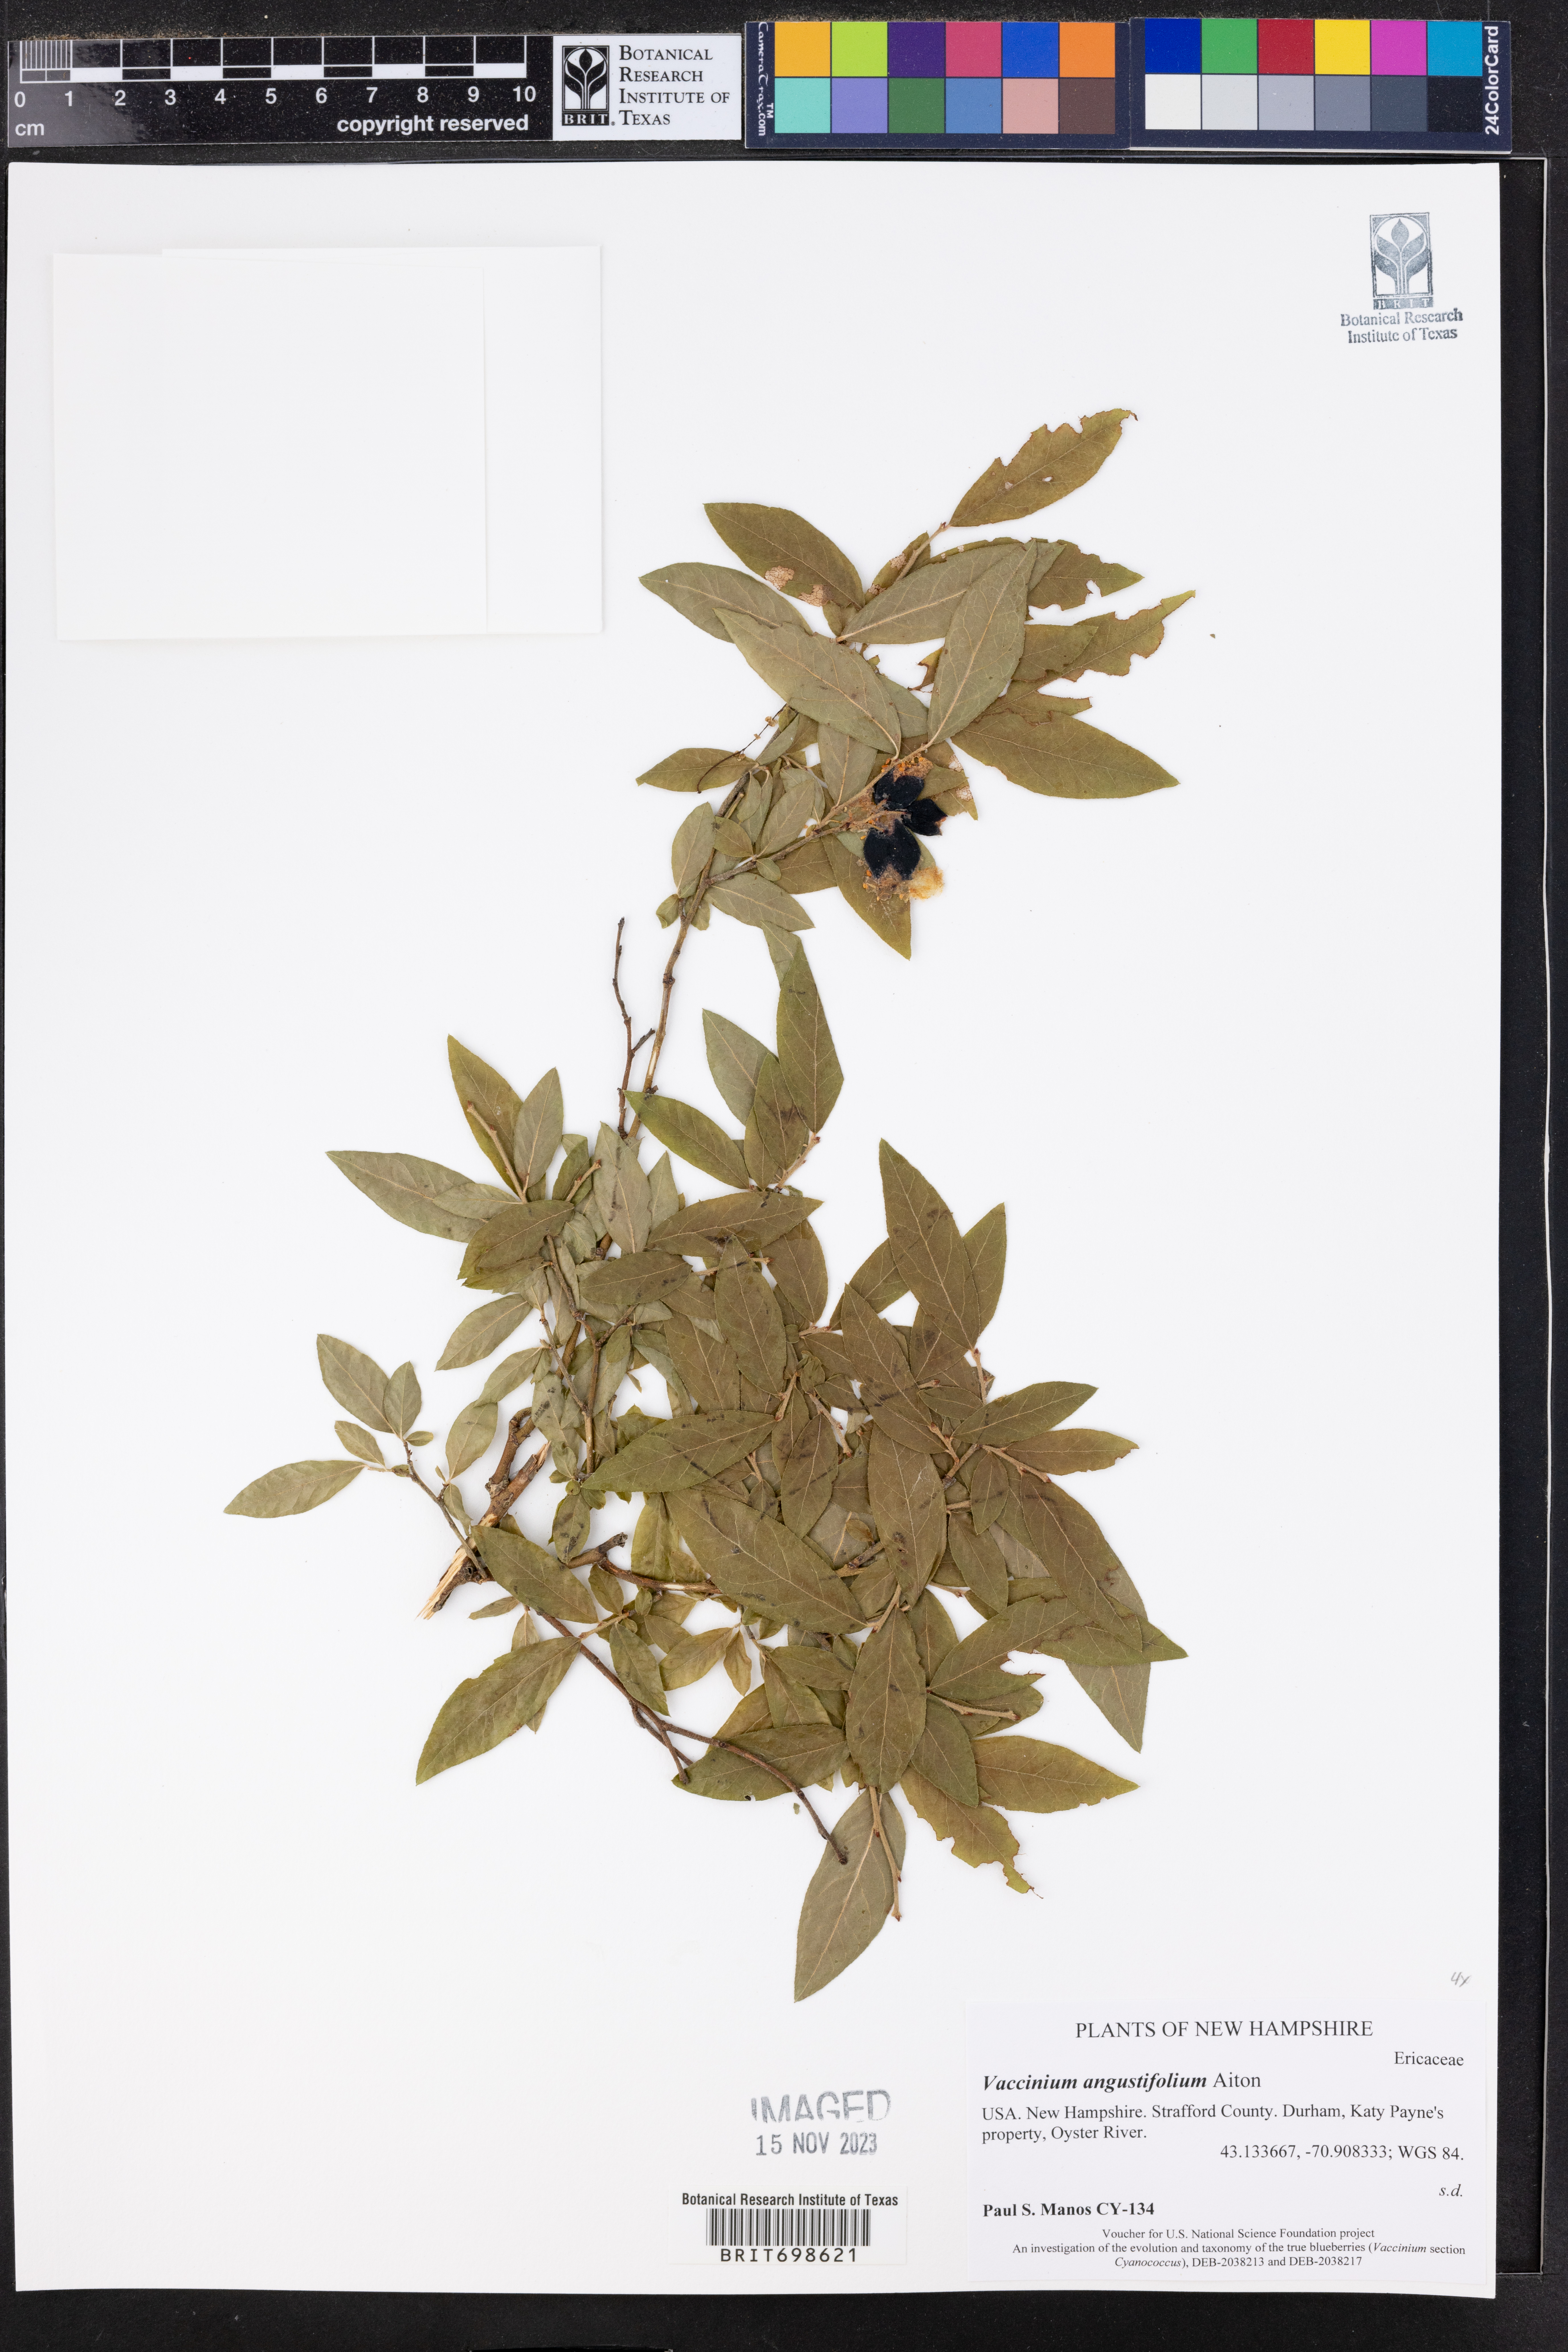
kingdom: Plantae
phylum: Tracheophyta
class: Magnoliopsida
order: Ericales
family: Ericaceae
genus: Vaccinium
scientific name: Vaccinium angustifolium
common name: Early lowbush blueberry
